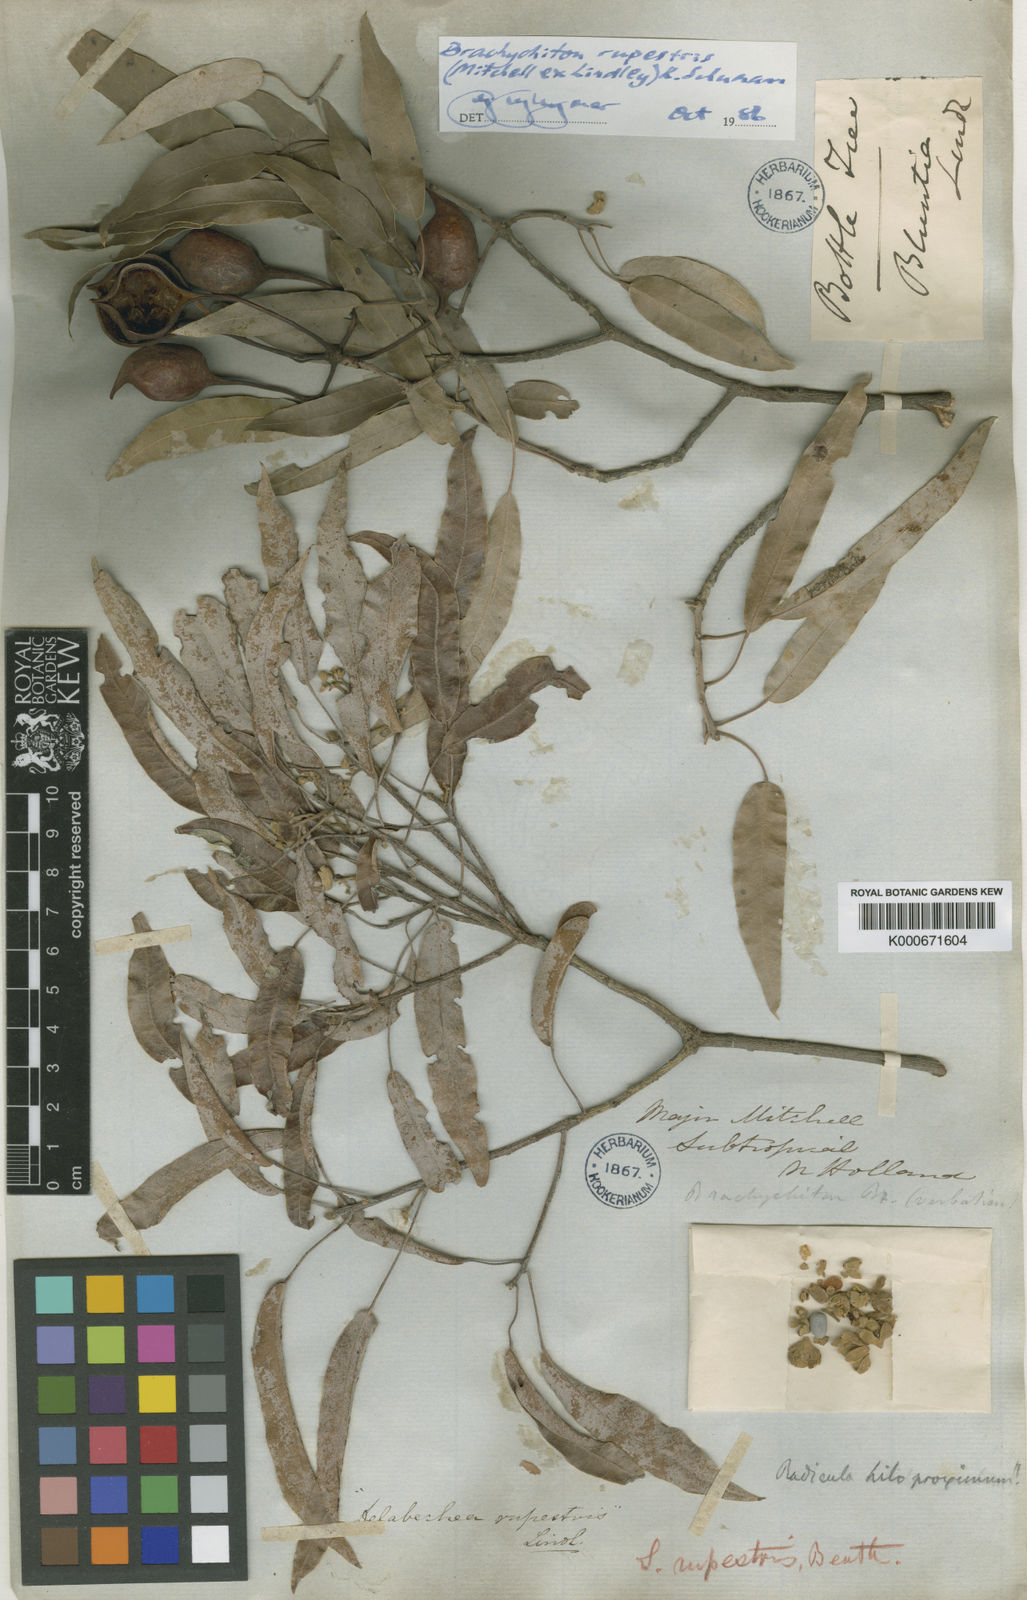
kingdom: Plantae
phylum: Tracheophyta
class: Magnoliopsida
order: Malvales
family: Malvaceae
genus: Brachychiton
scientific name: Brachychiton rupestris
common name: Queensland bottletree
